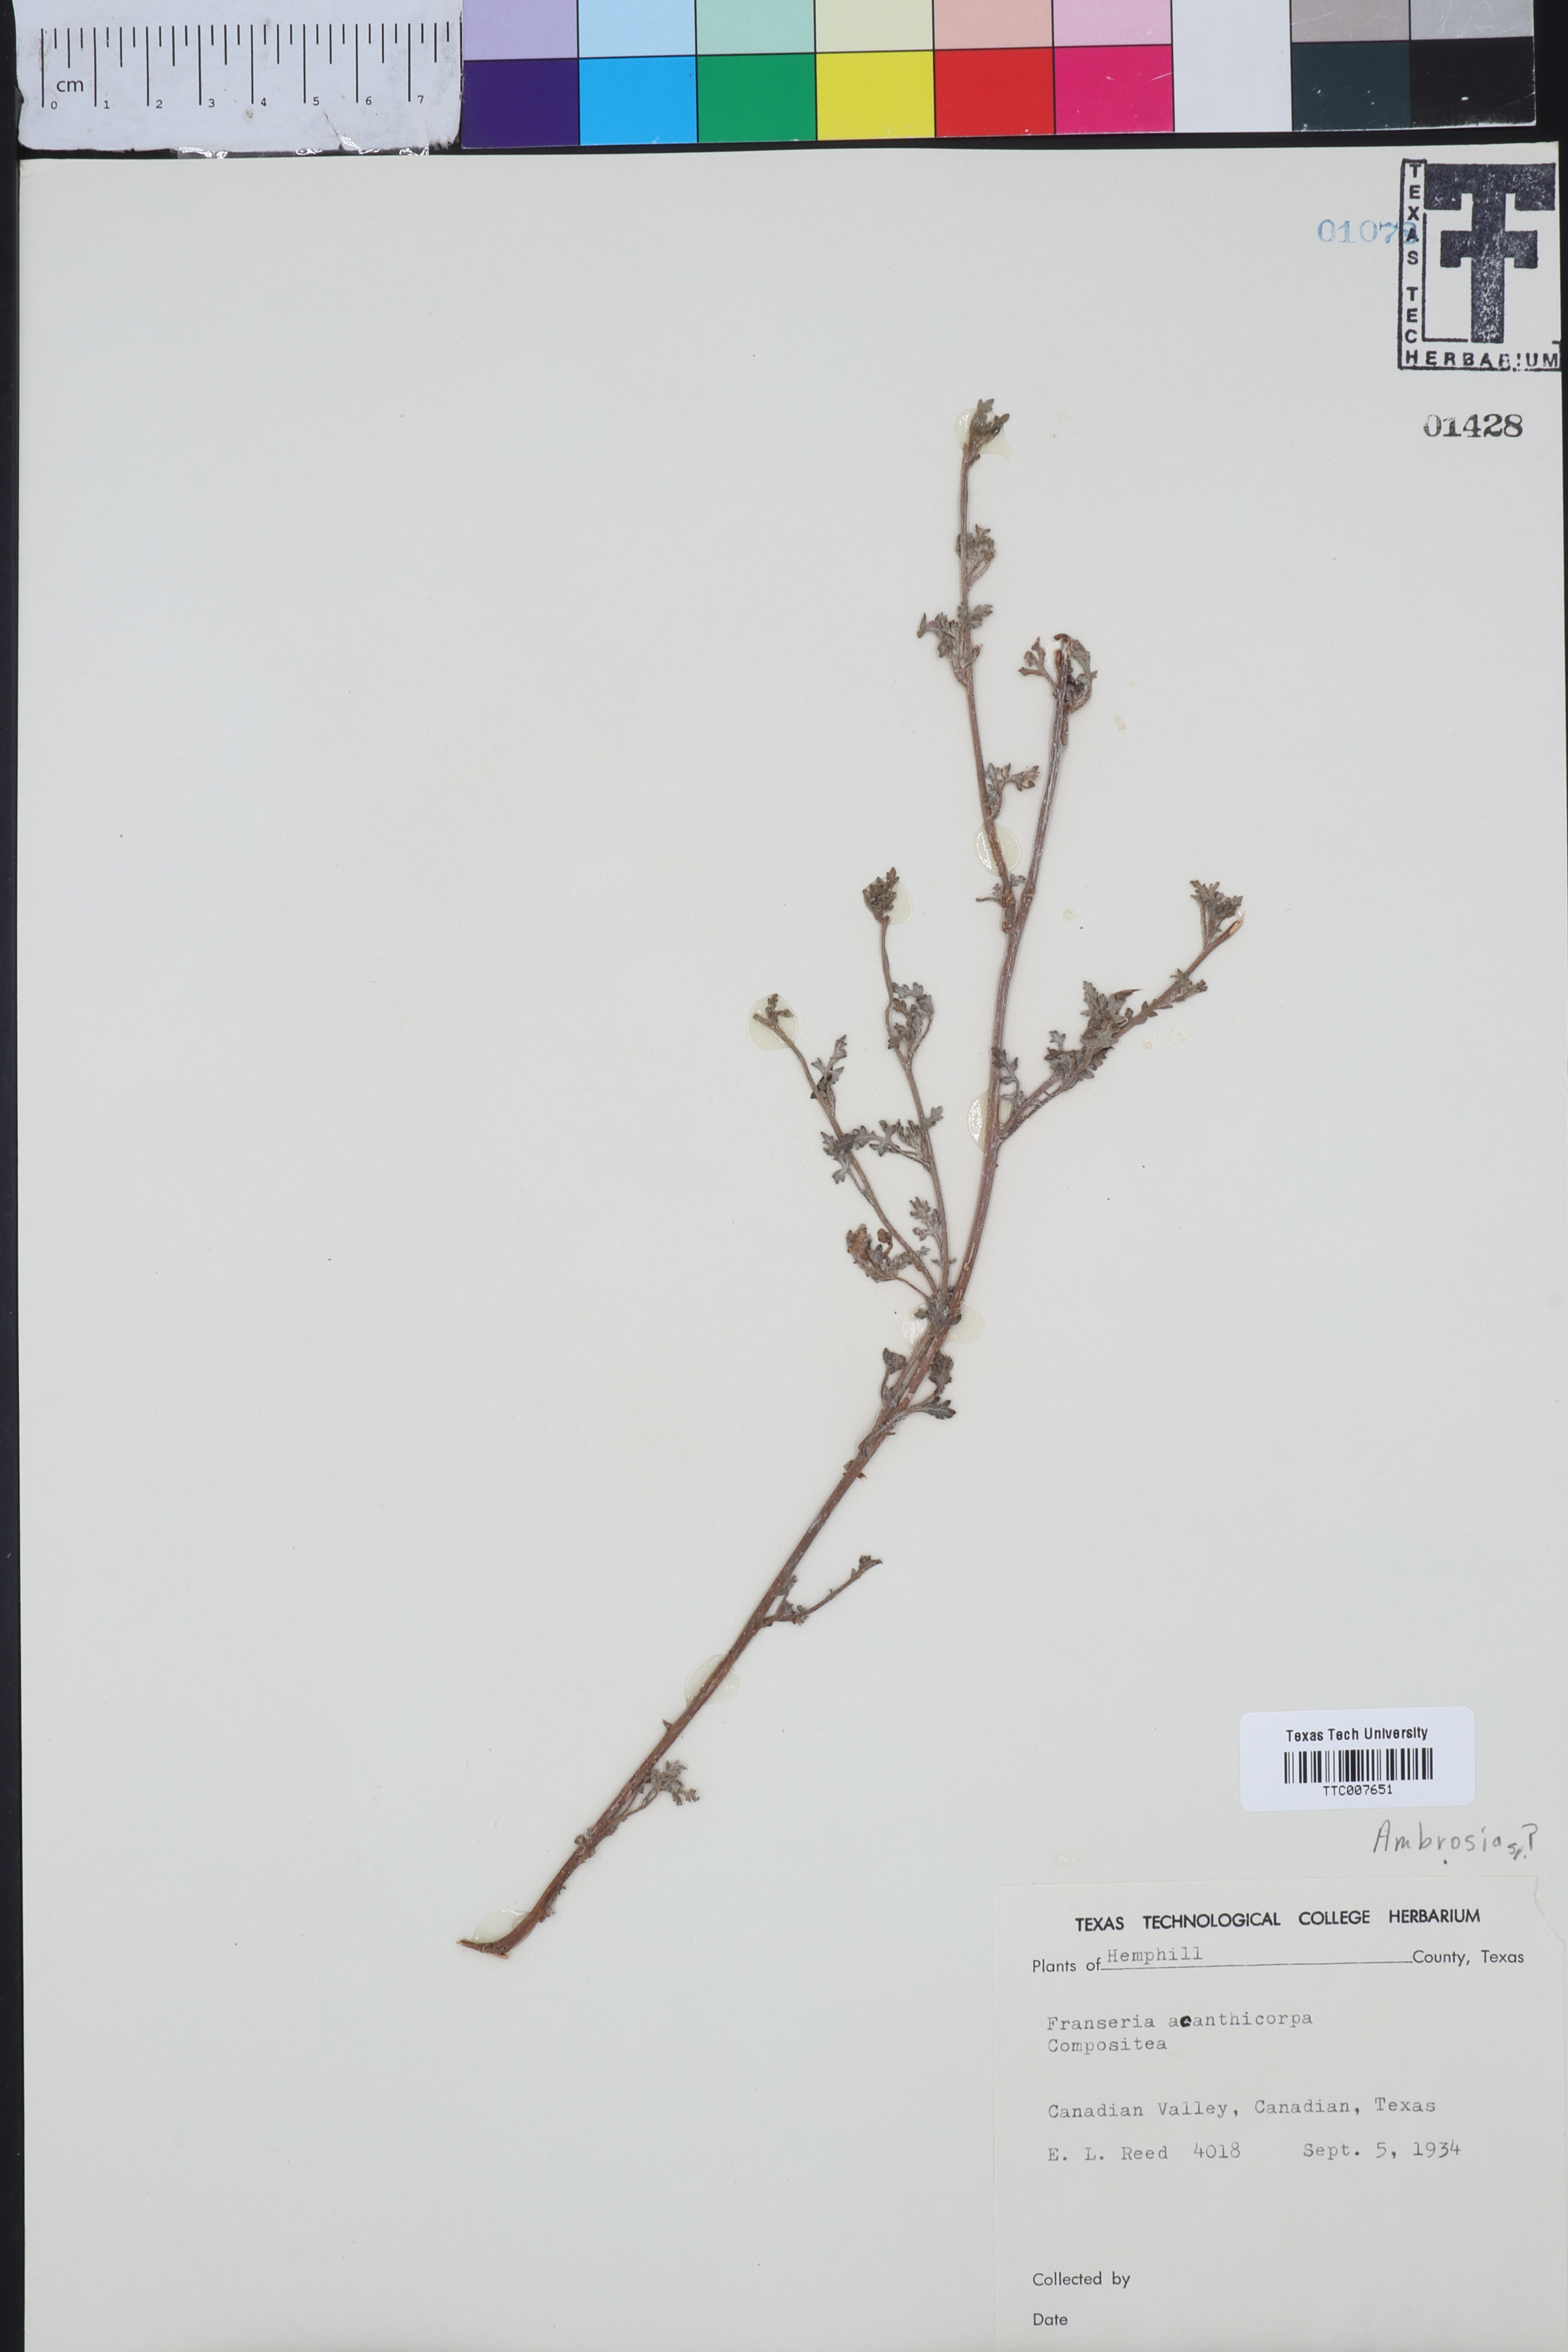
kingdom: Plantae
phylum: Tracheophyta
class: Magnoliopsida
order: Asterales
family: Asteraceae
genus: Ambrosia
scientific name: Ambrosia
